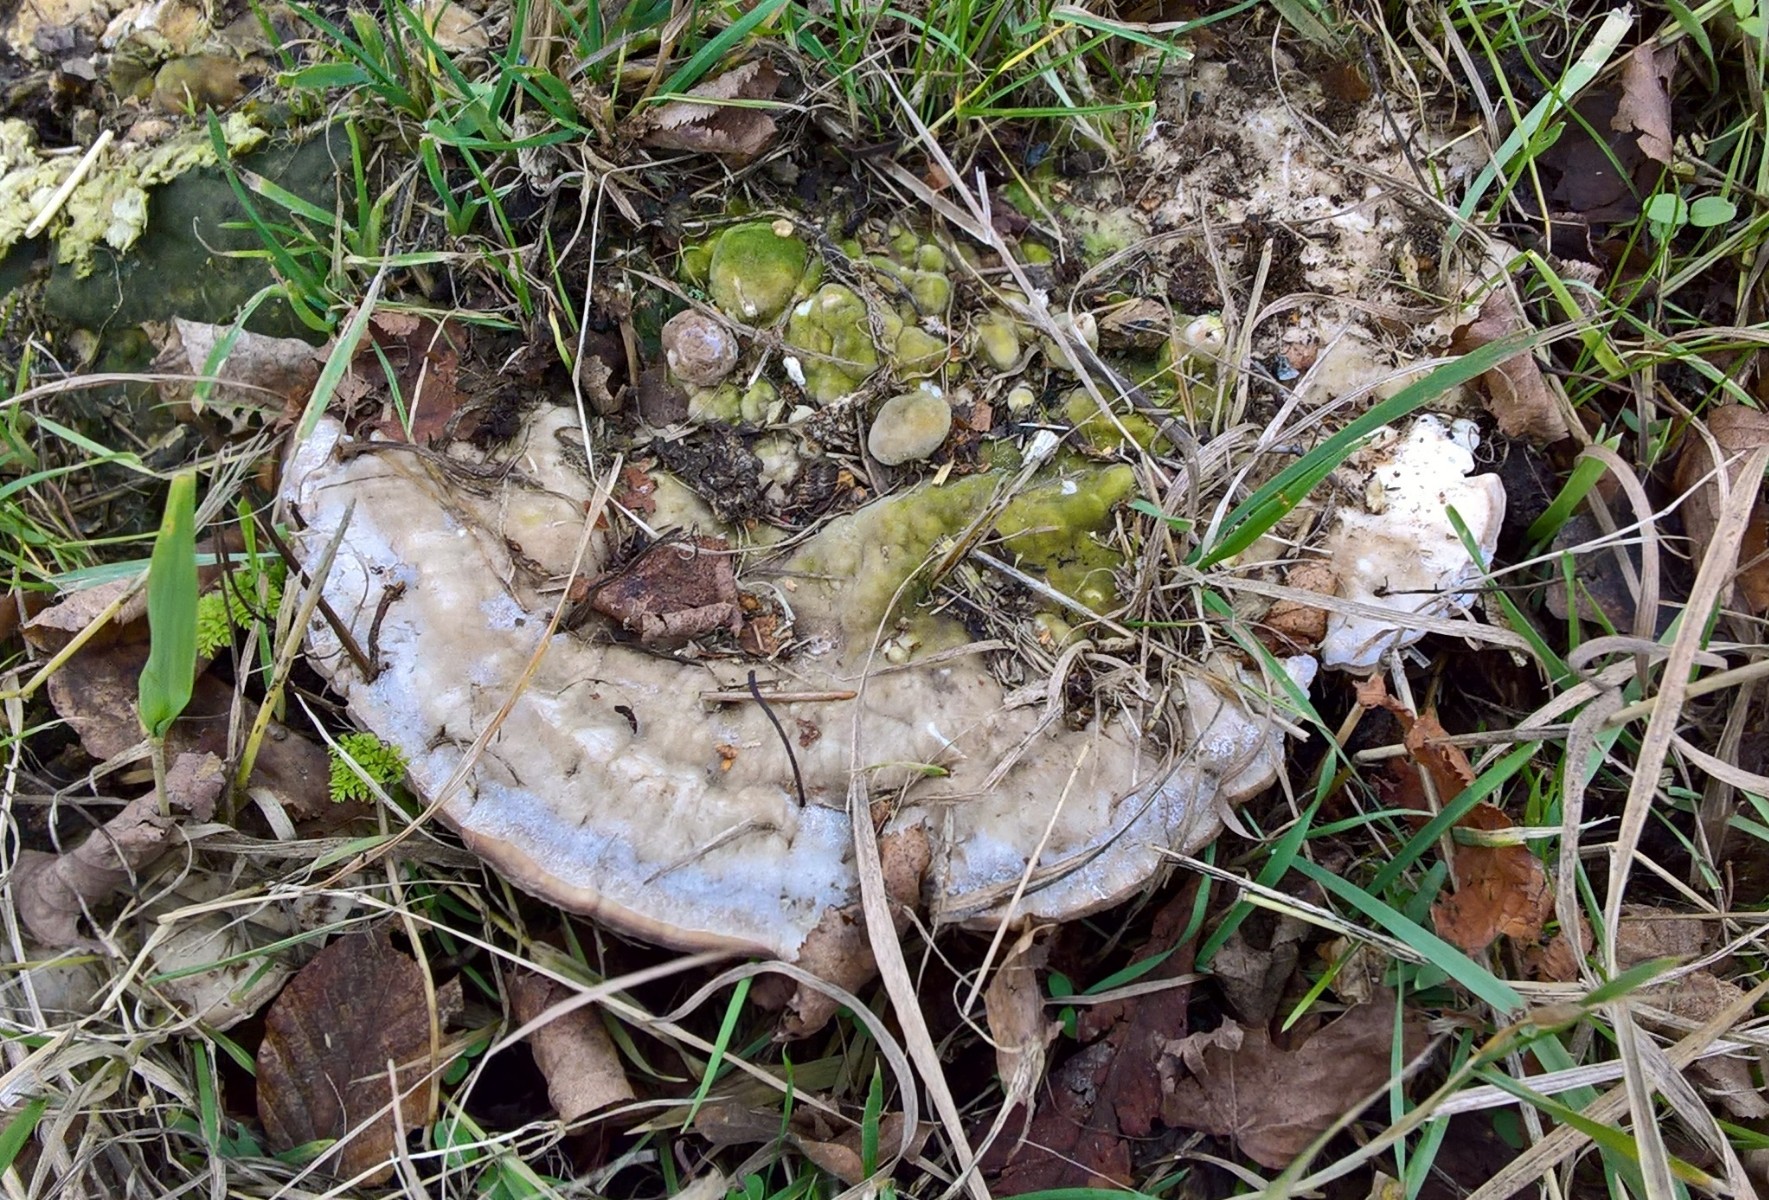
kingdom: Fungi
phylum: Basidiomycota
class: Agaricomycetes
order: Polyporales
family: Polyporaceae
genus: Trametes
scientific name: Trametes gibbosa
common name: puklet læderporesvamp
